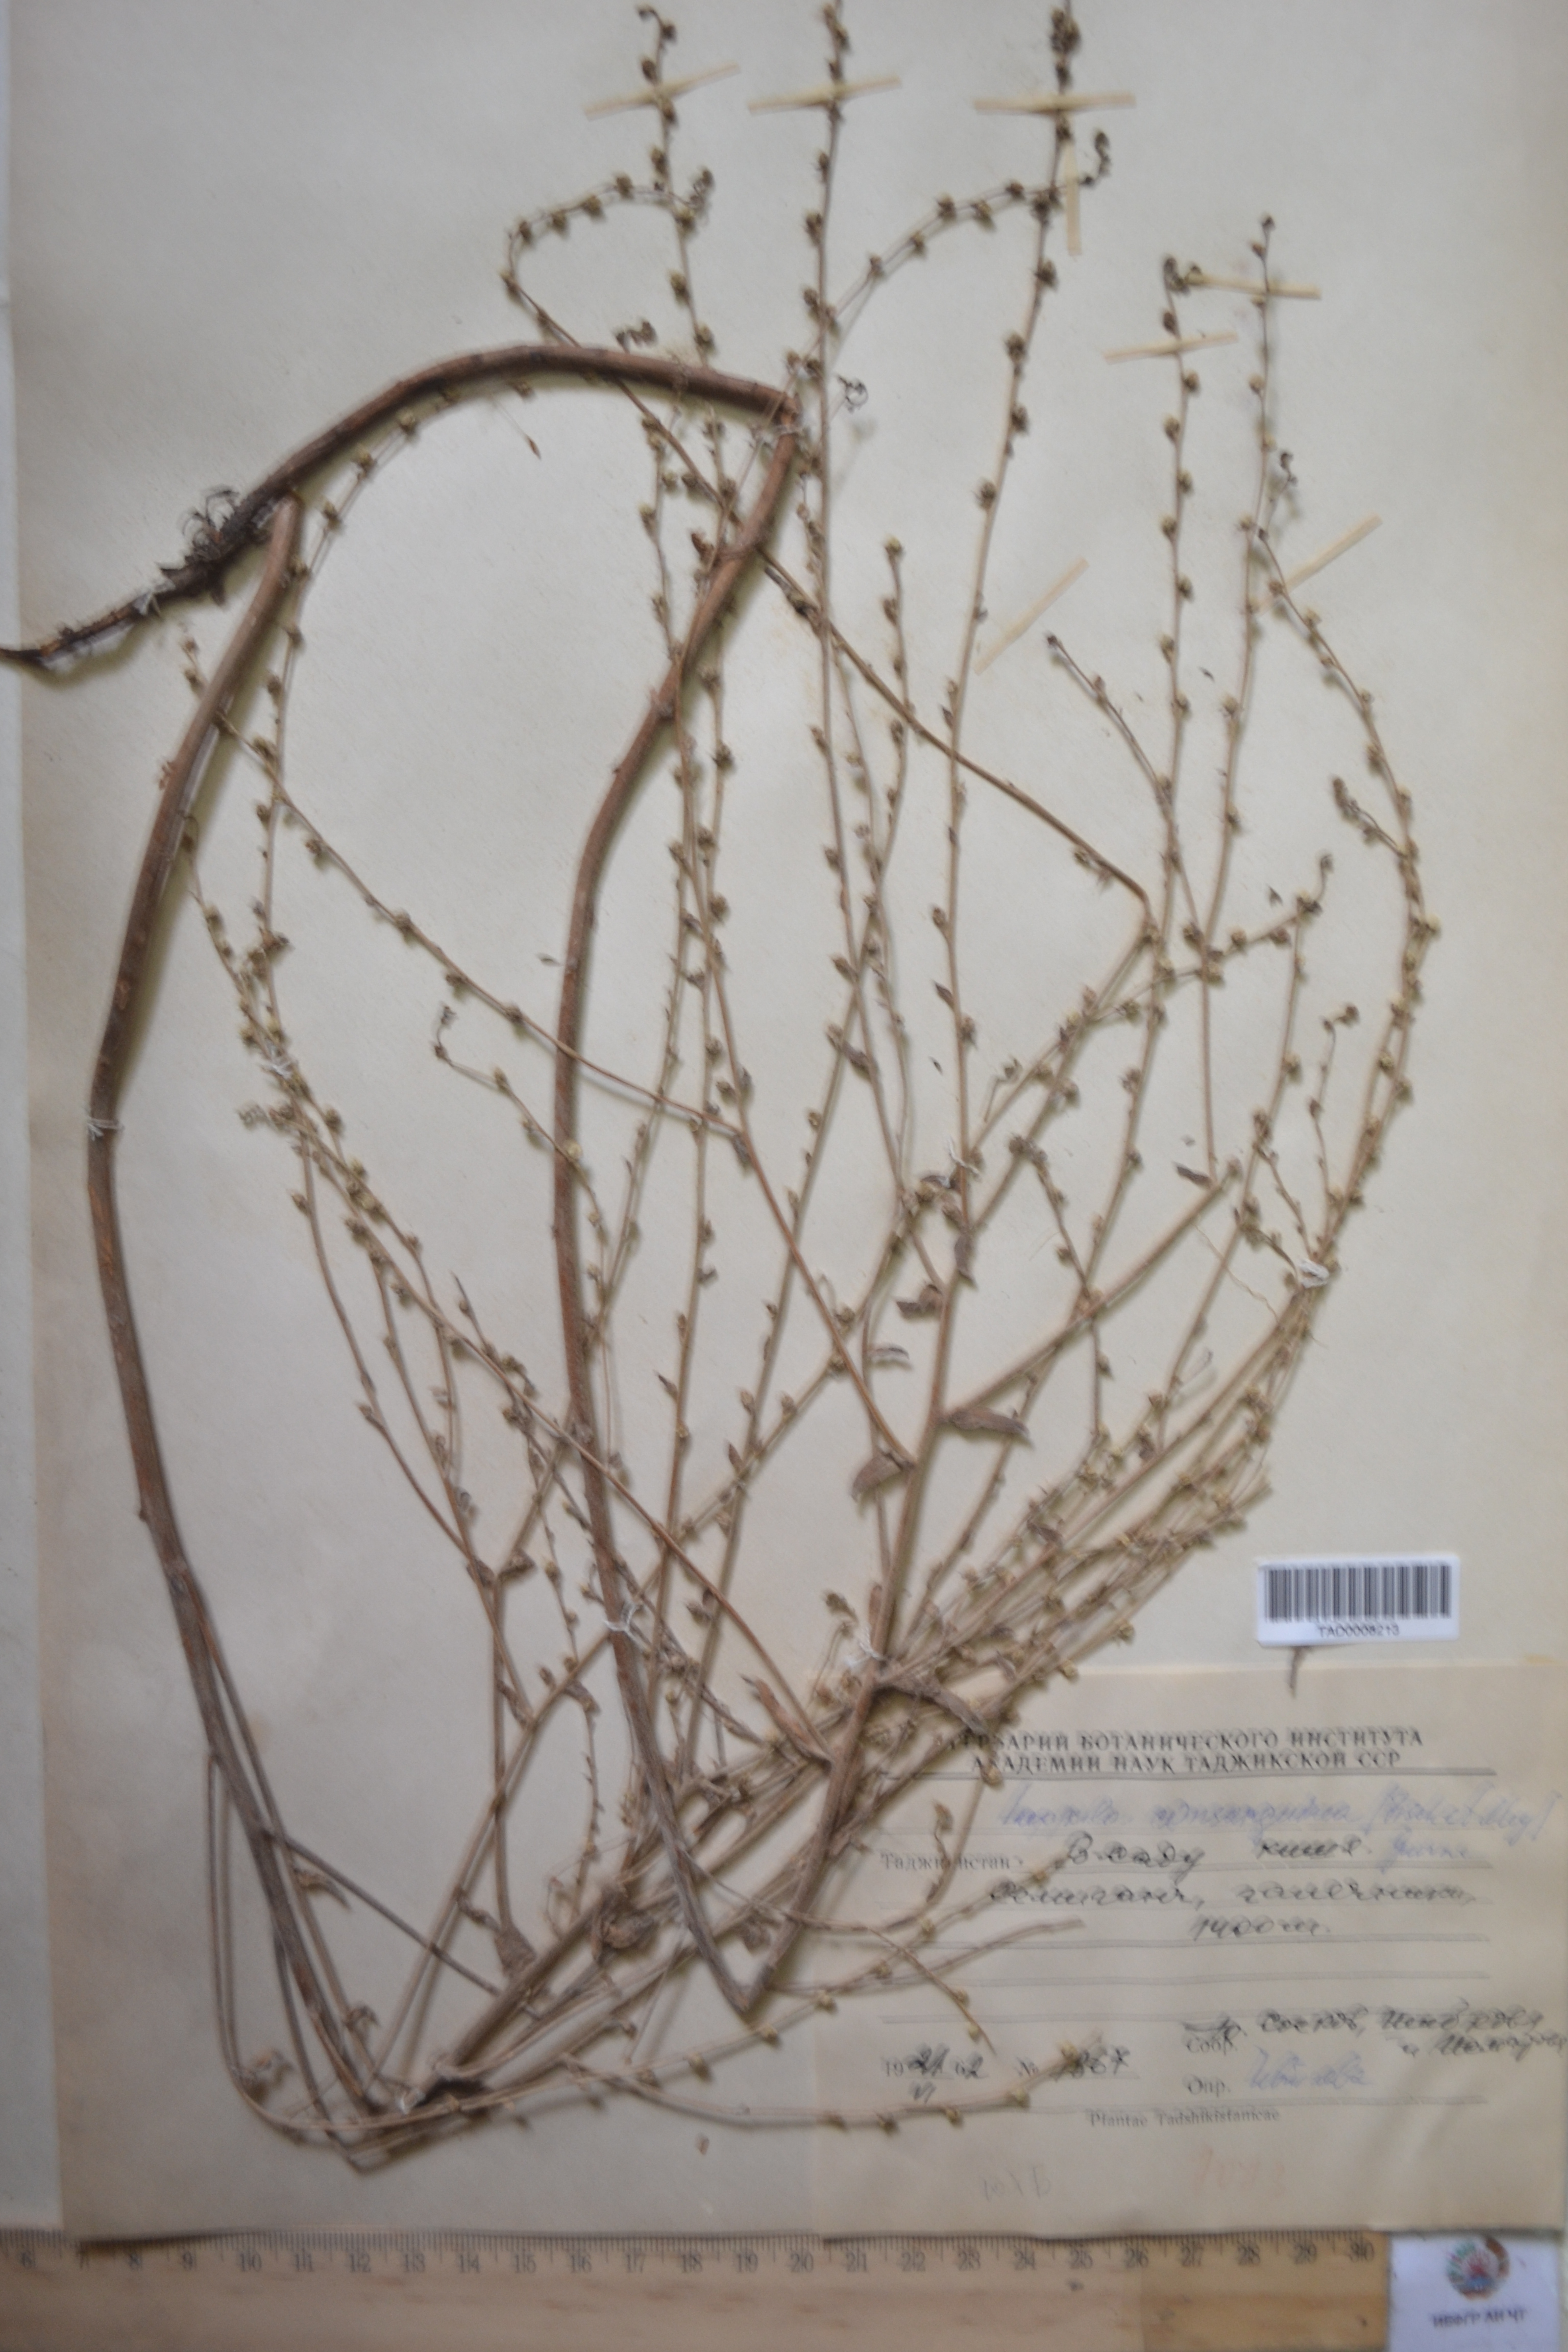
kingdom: Plantae
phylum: Tracheophyta
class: Magnoliopsida
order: Boraginales
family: Boraginaceae
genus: Lappula
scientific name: Lappula squarrosa
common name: European stickseed
